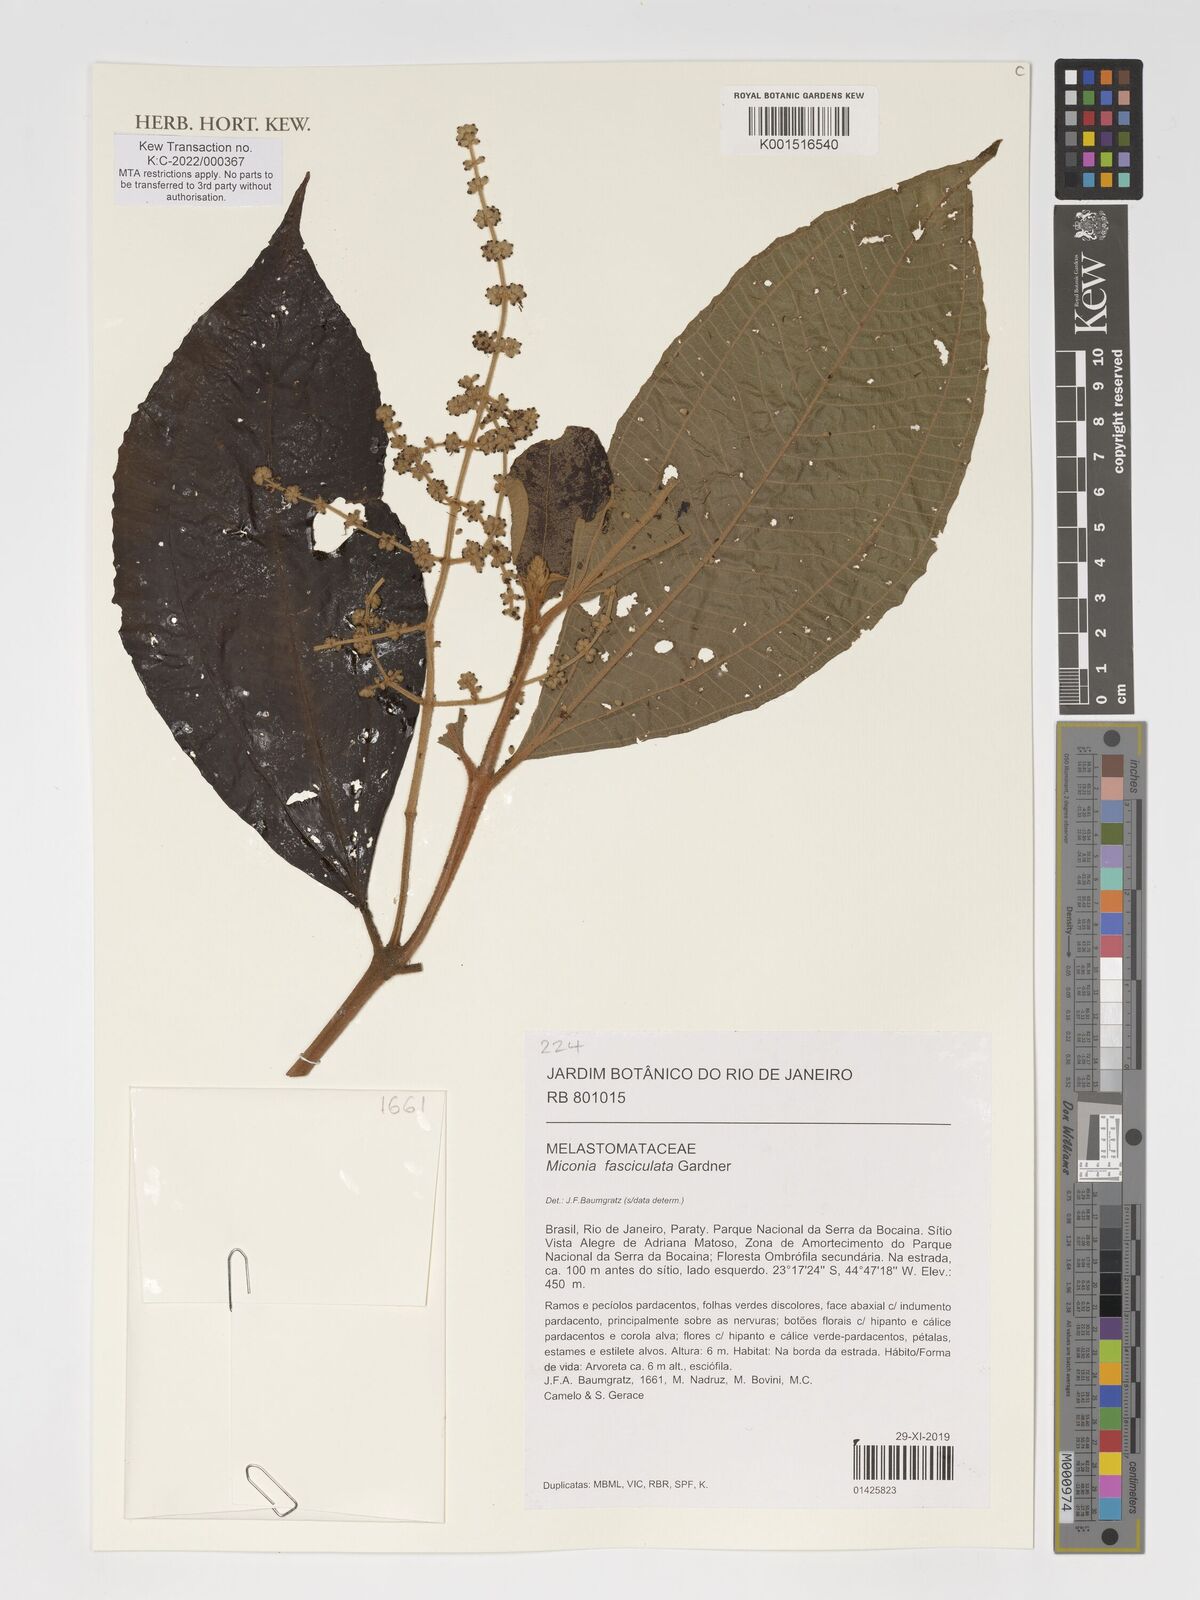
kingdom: Plantae
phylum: Tracheophyta
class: Magnoliopsida
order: Myrtales
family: Melastomataceae
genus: Miconia
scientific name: Miconia fasciculata
